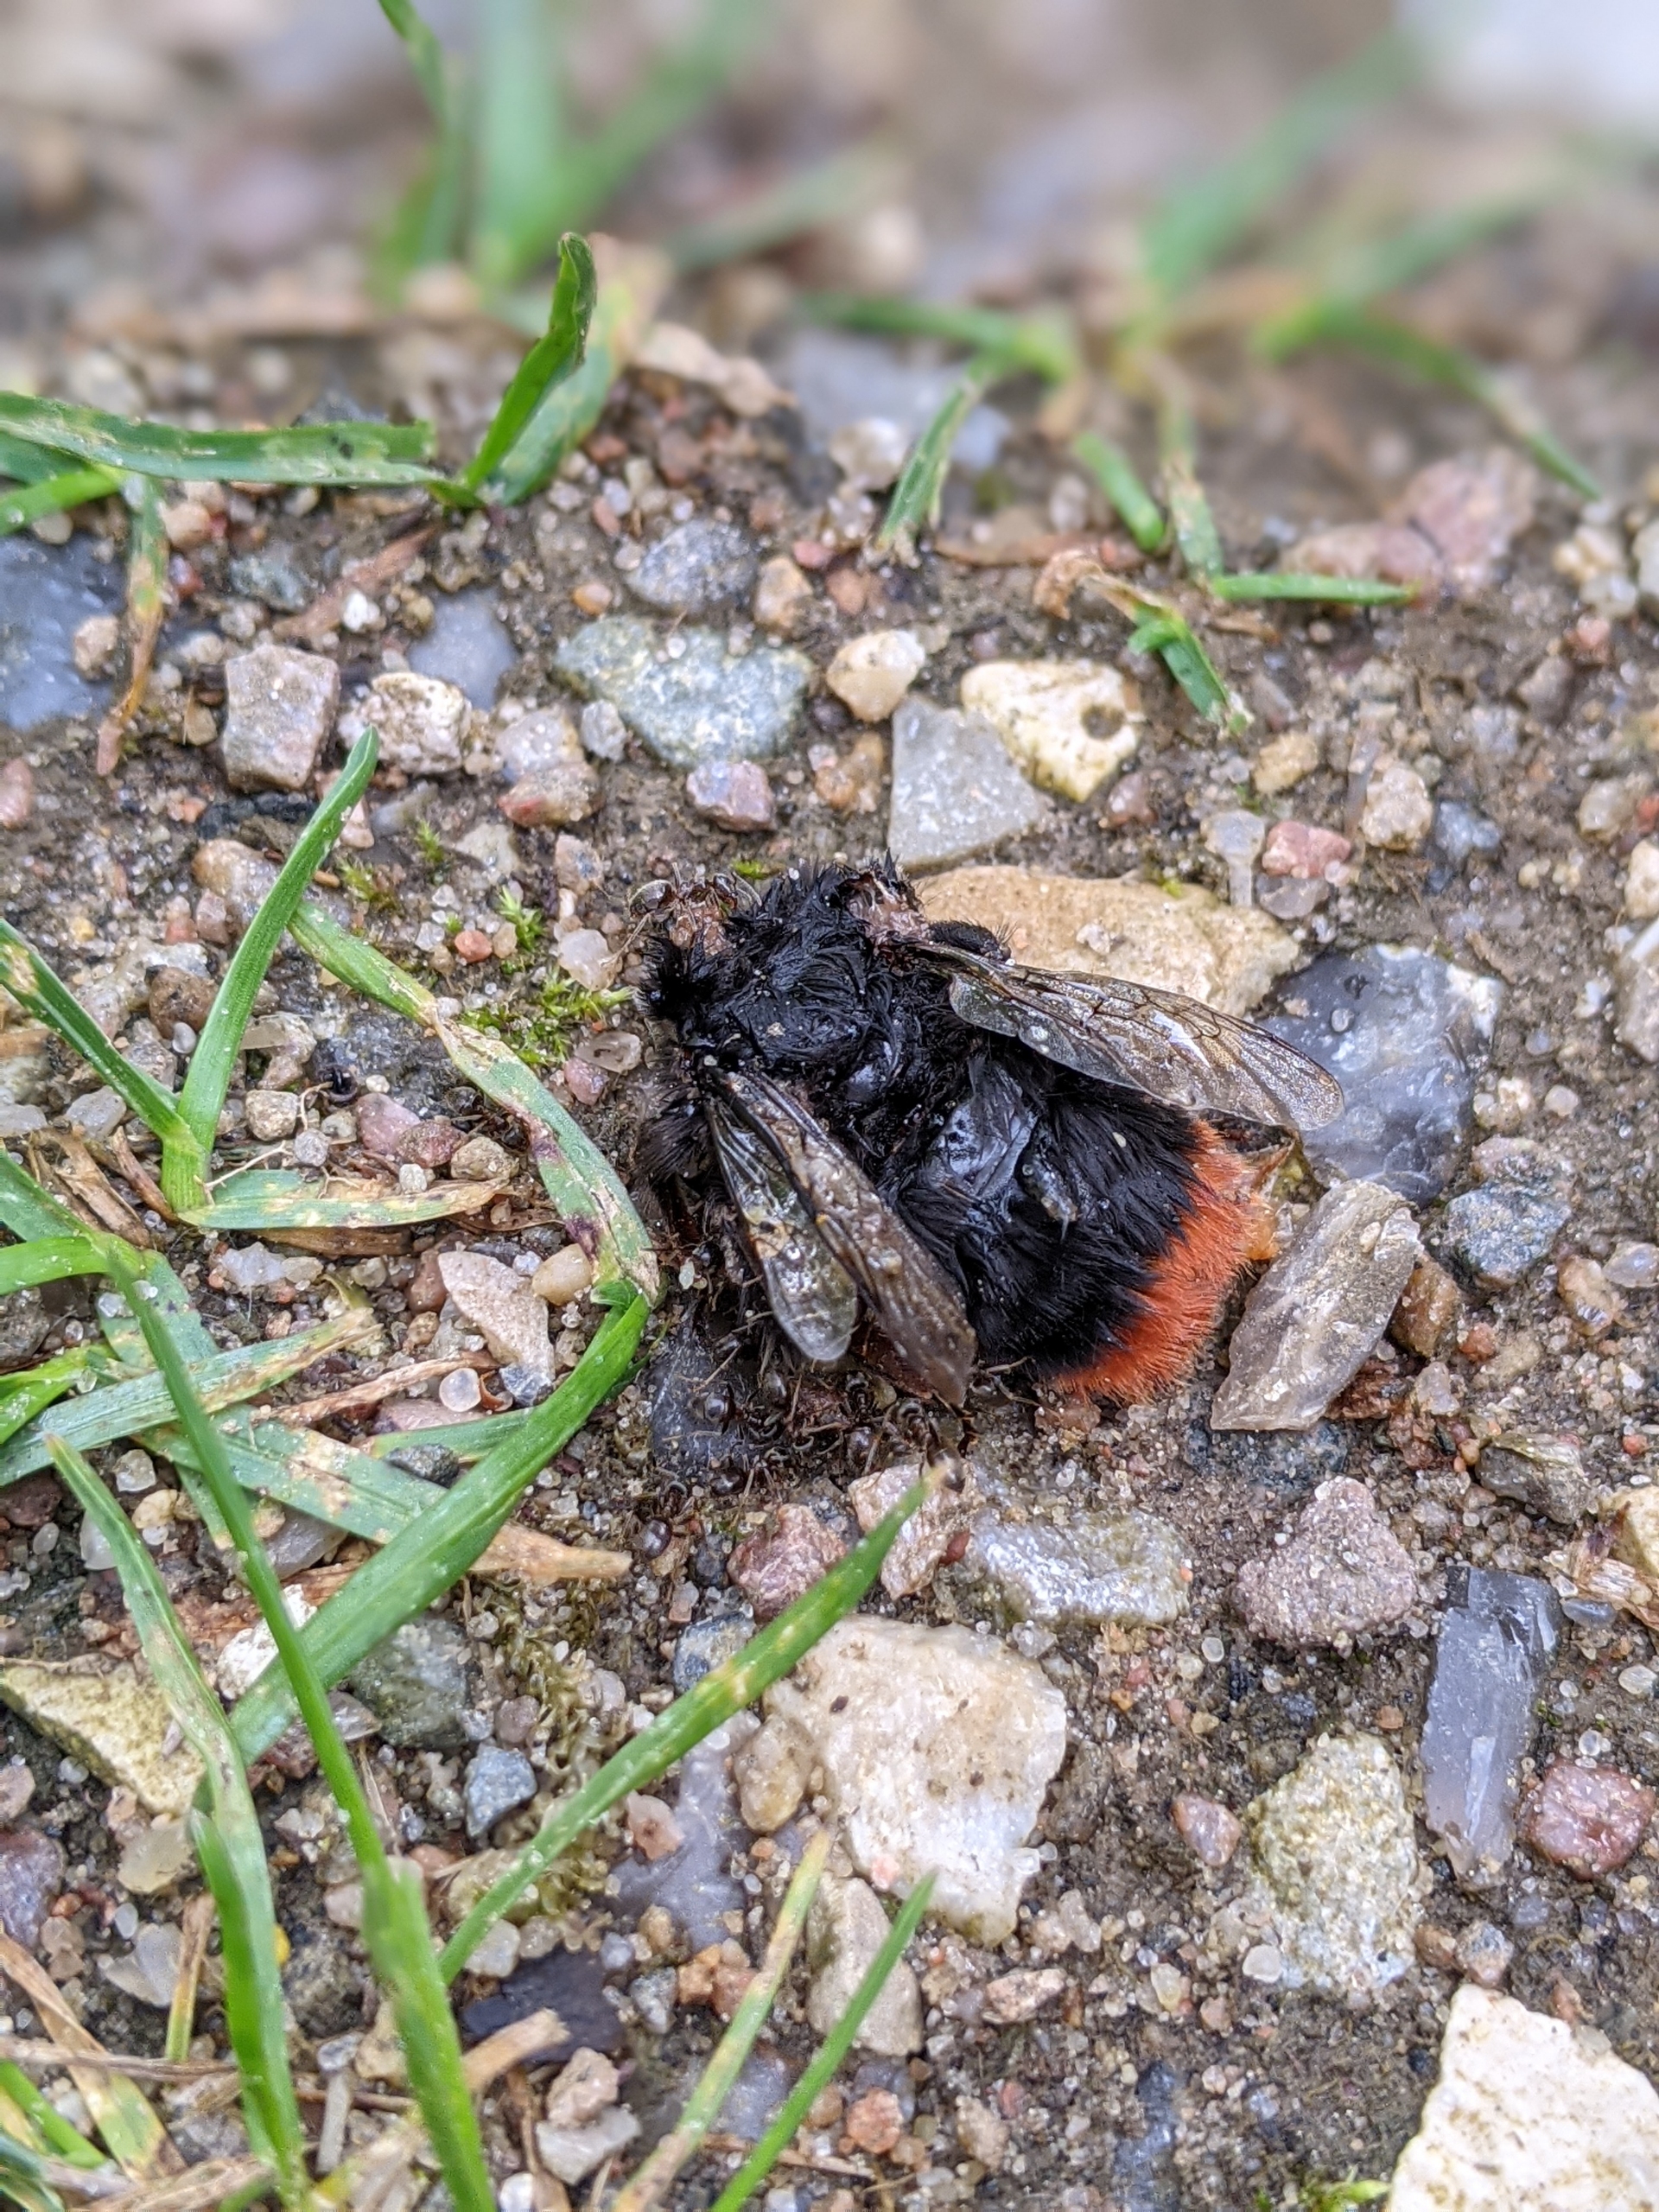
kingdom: Animalia
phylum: Arthropoda
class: Insecta
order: Hymenoptera
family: Apidae
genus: Bombus
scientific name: Bombus lapidarius
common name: Stenhumle
